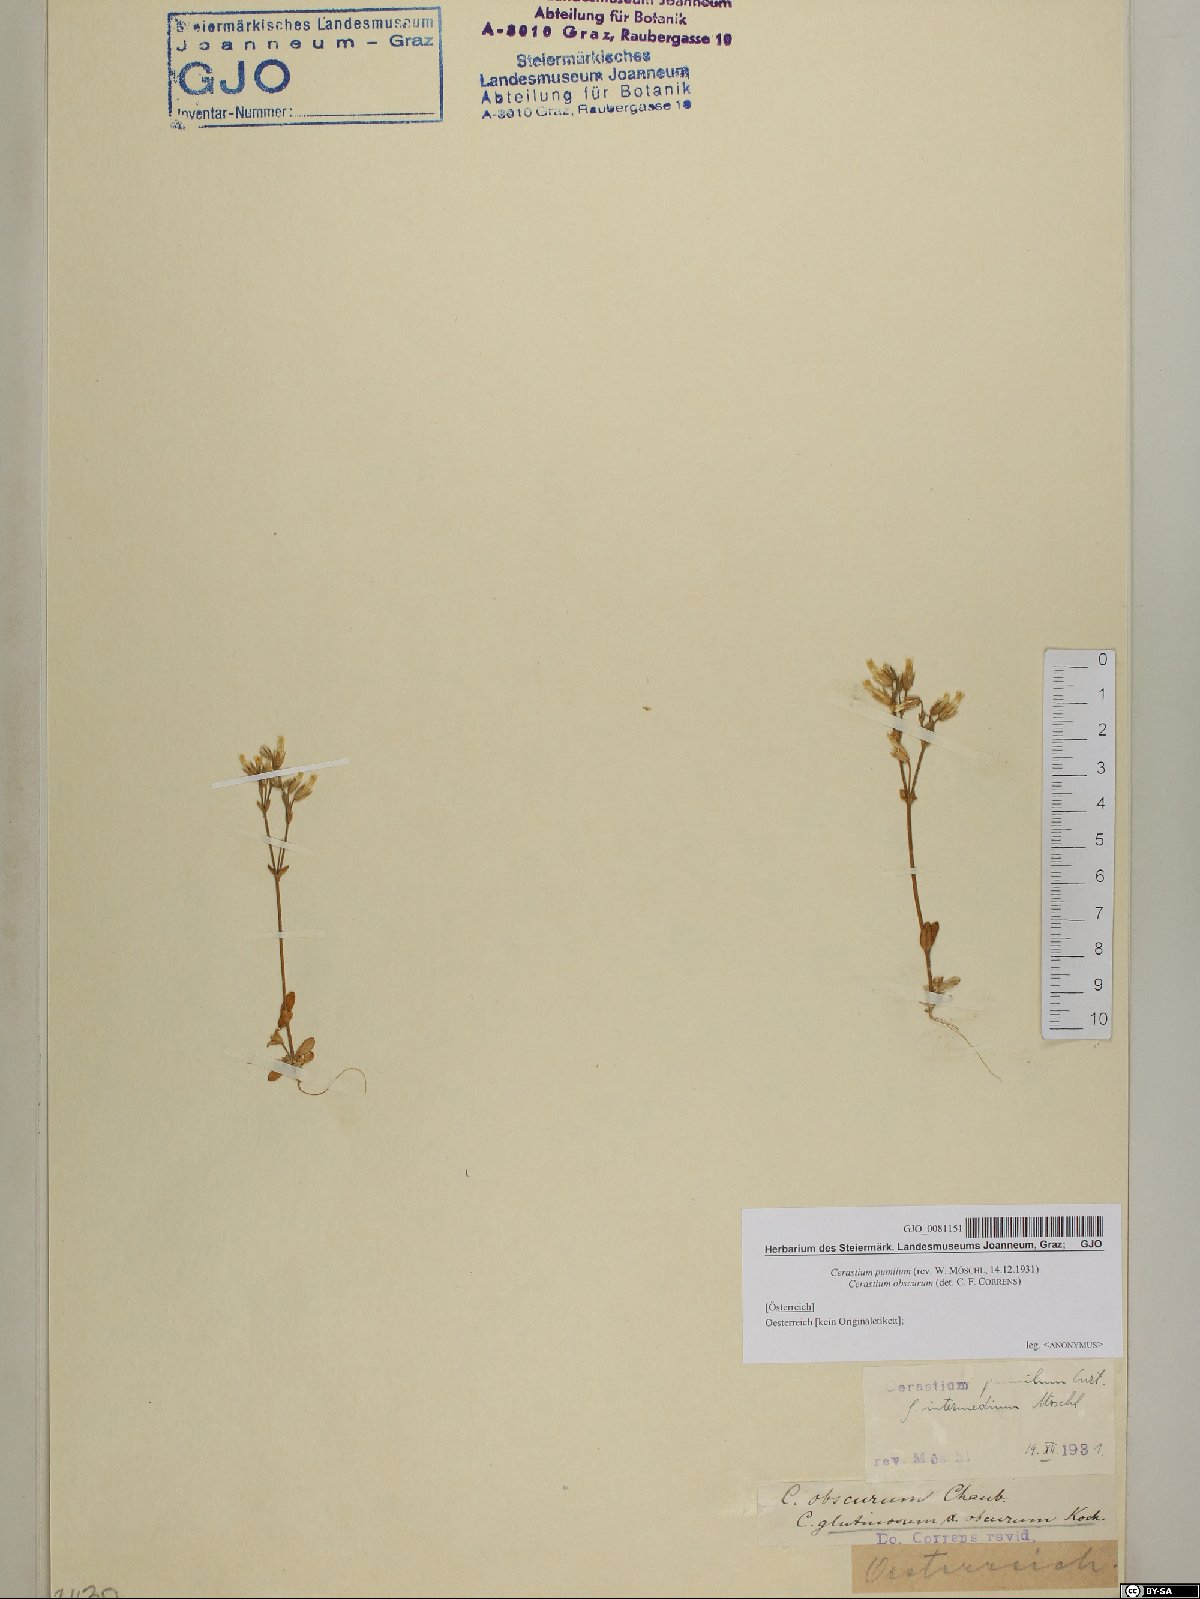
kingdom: Plantae
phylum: Tracheophyta
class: Magnoliopsida
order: Caryophyllales
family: Caryophyllaceae
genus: Cerastium
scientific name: Cerastium pumilum
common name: Dwarf mouse-ear
